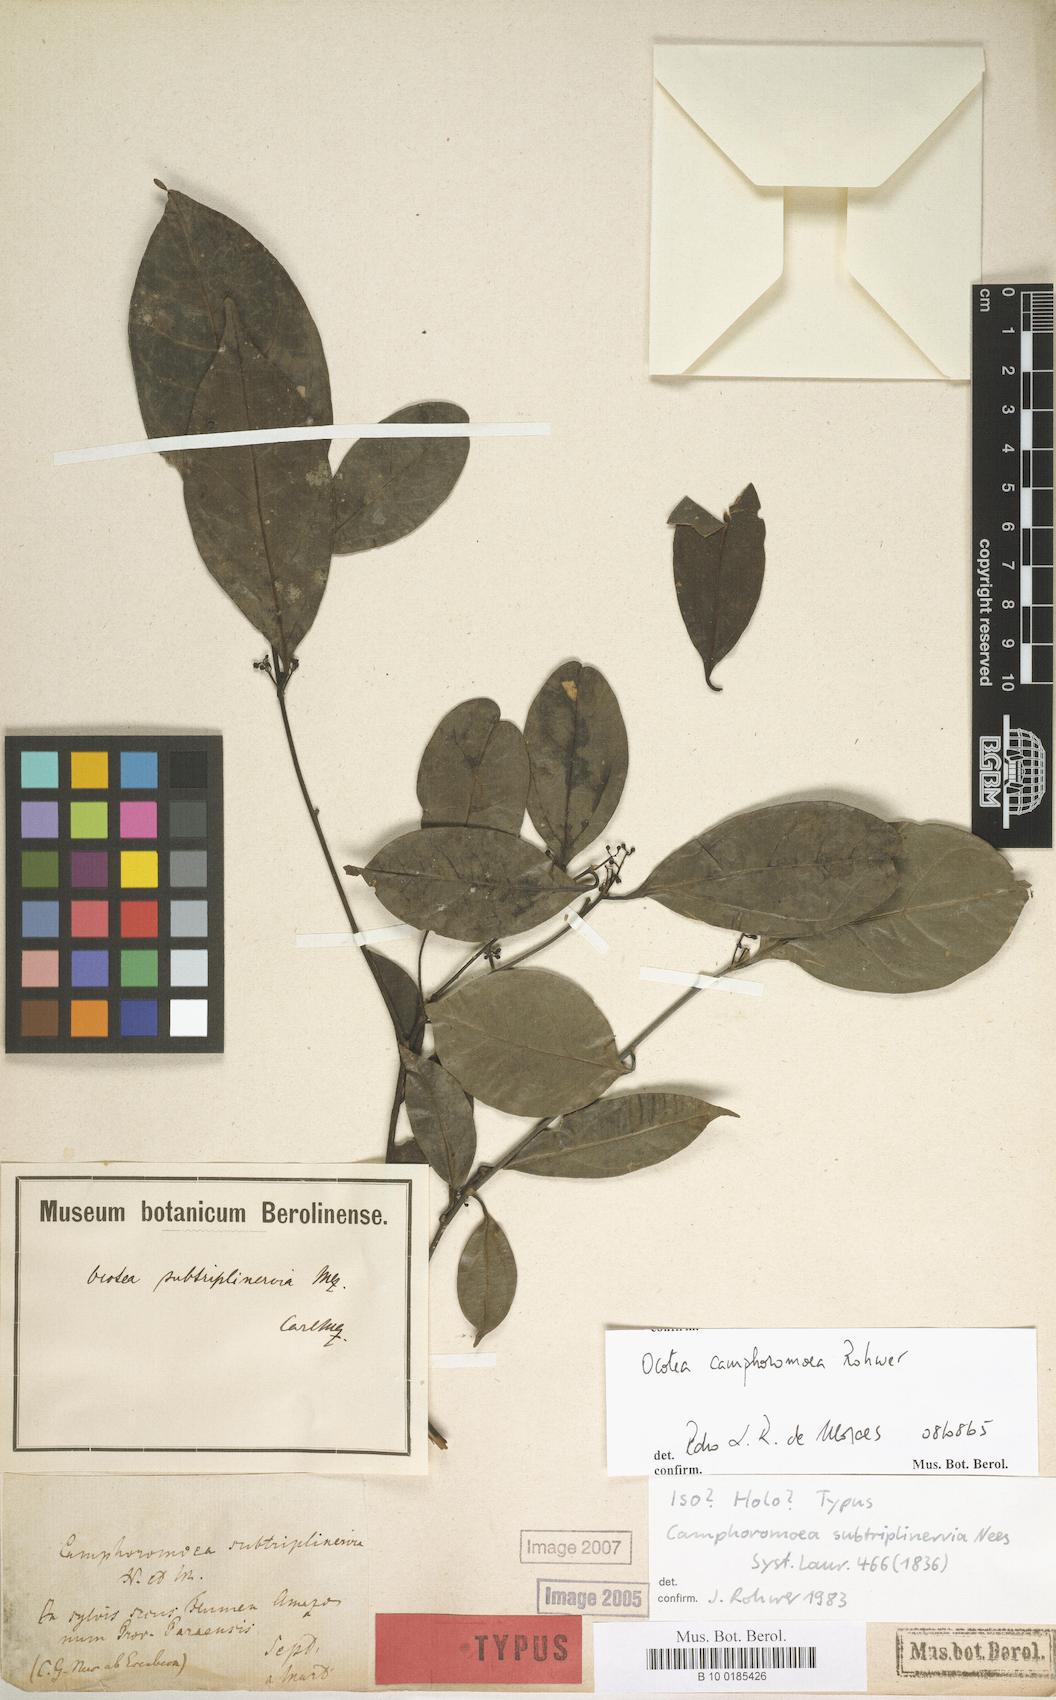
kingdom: Plantae
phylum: Tracheophyta
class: Magnoliopsida
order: Laurales
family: Lauraceae
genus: Ocotea
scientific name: Ocotea camphoromoea
